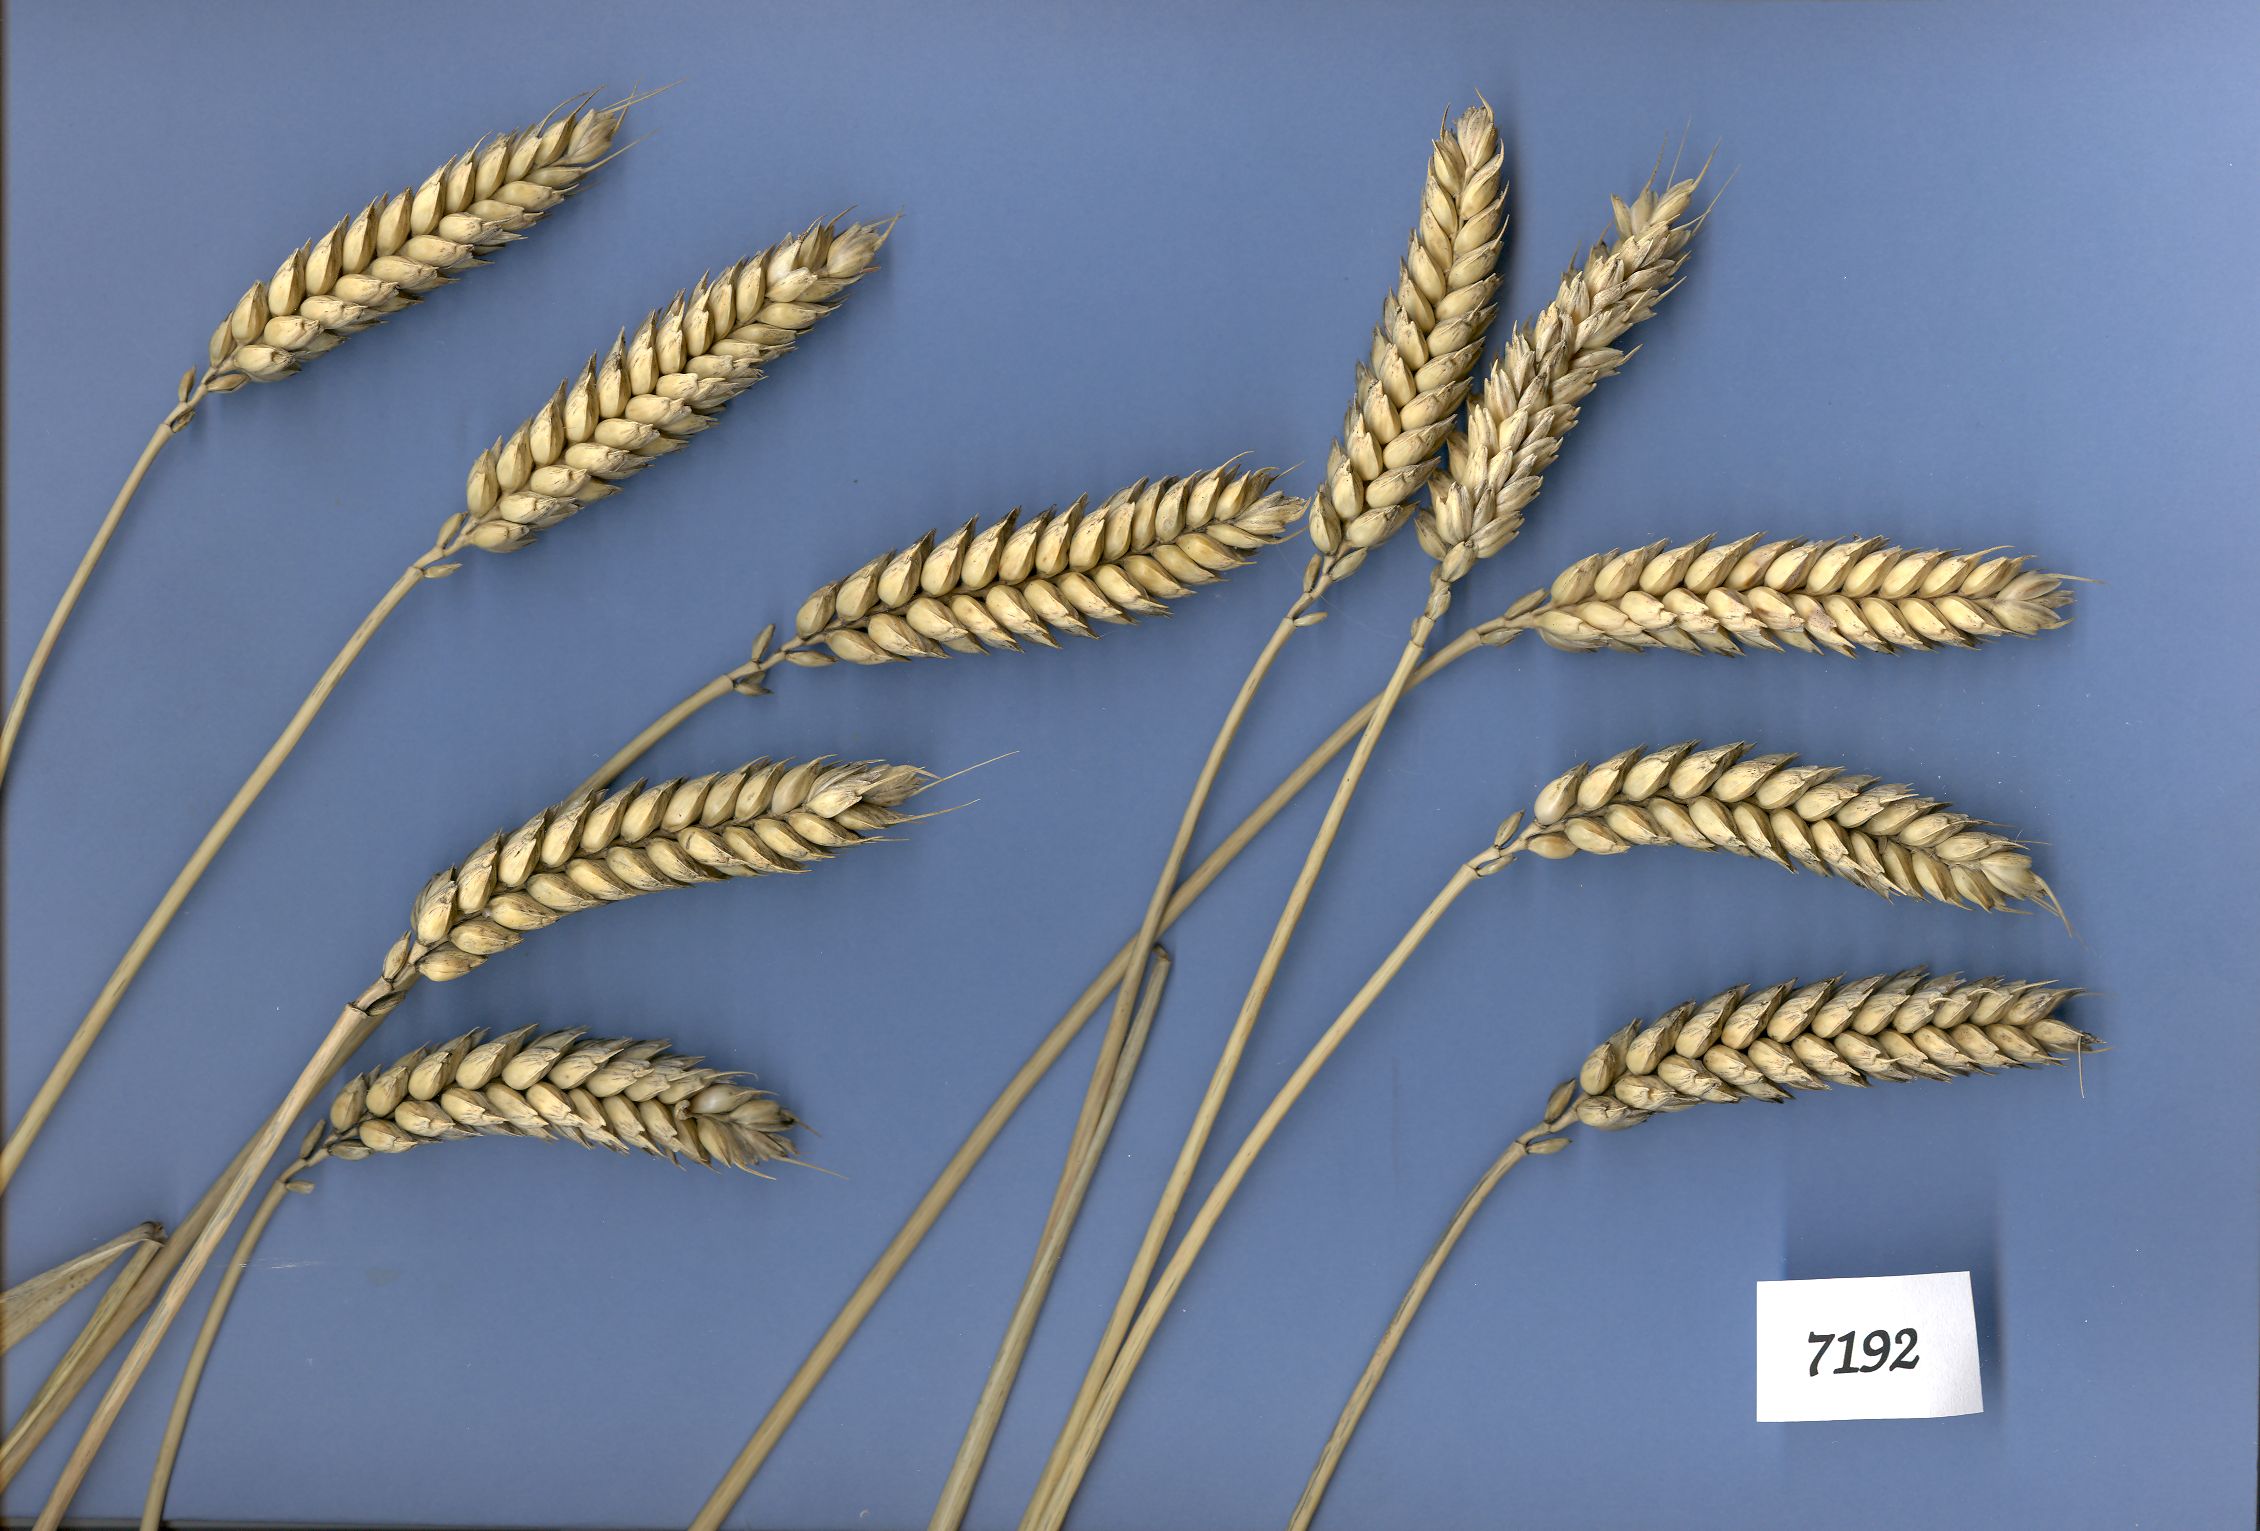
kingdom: Plantae
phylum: Tracheophyta
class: Liliopsida
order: Poales
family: Poaceae
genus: Triticum
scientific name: Triticum aestivum
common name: Common wheat
